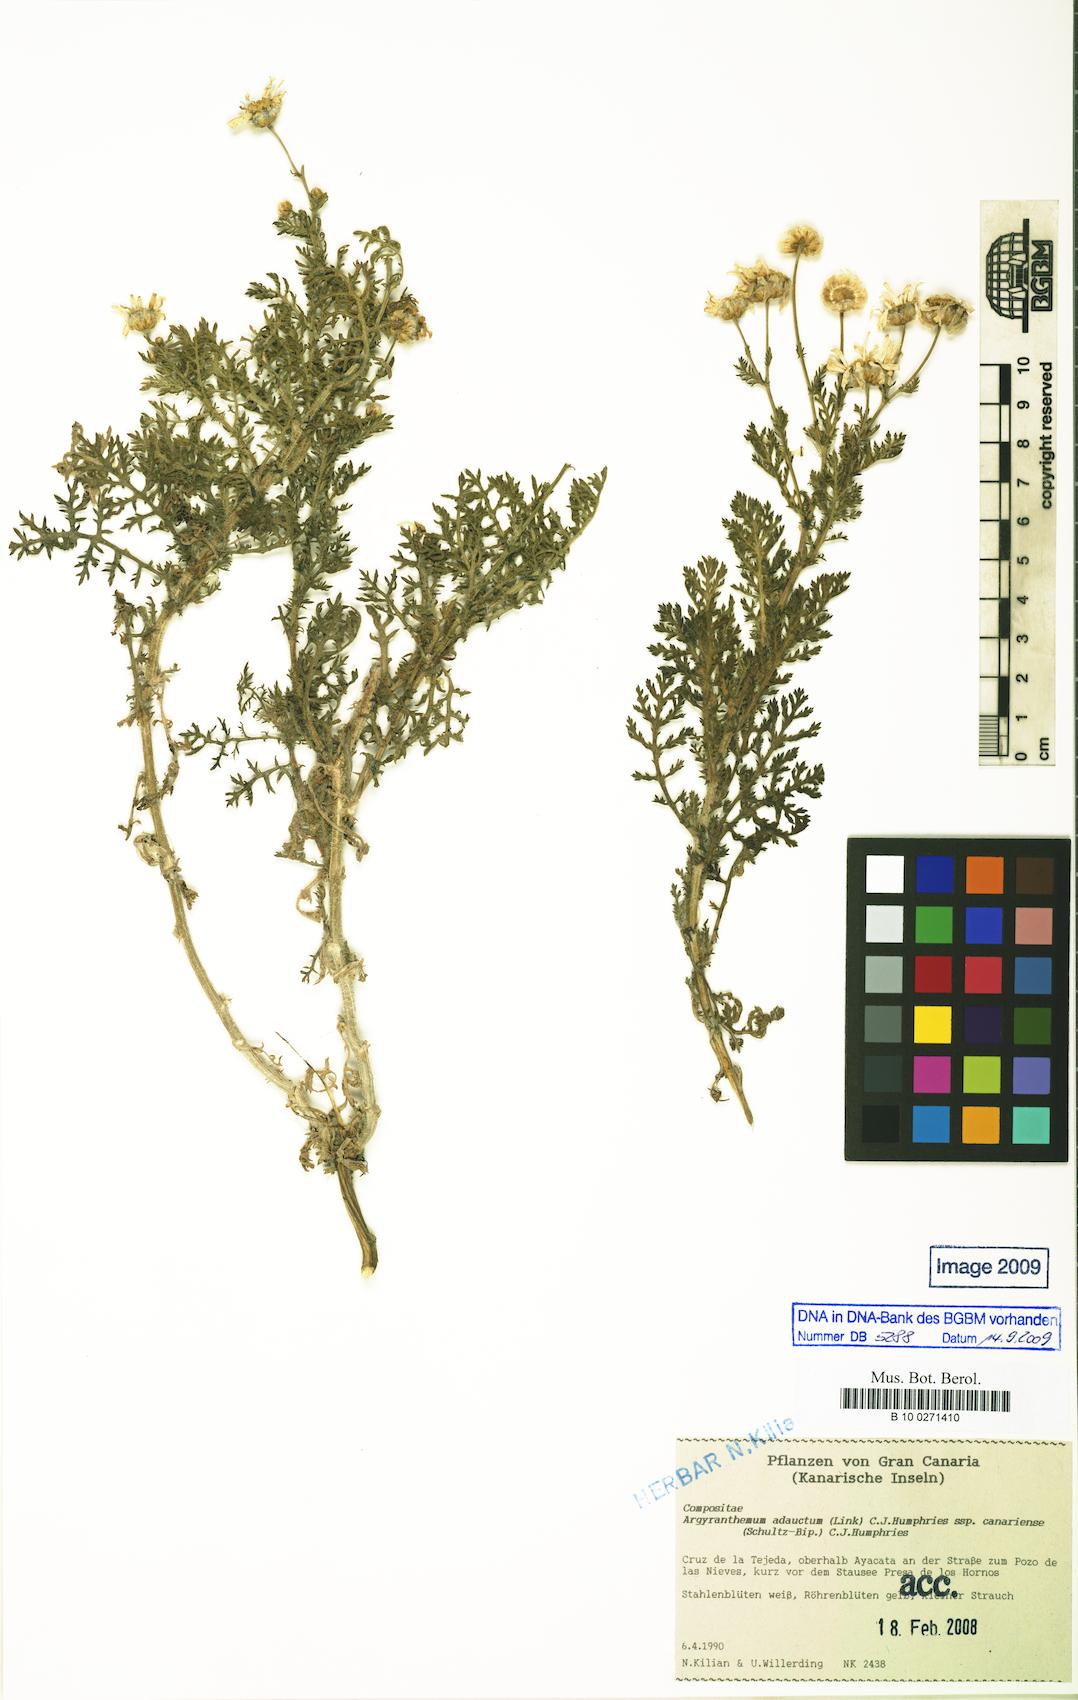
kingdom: Plantae
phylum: Tracheophyta
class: Magnoliopsida
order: Asterales
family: Asteraceae
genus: Argyranthemum
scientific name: Argyranthemum adauctum
